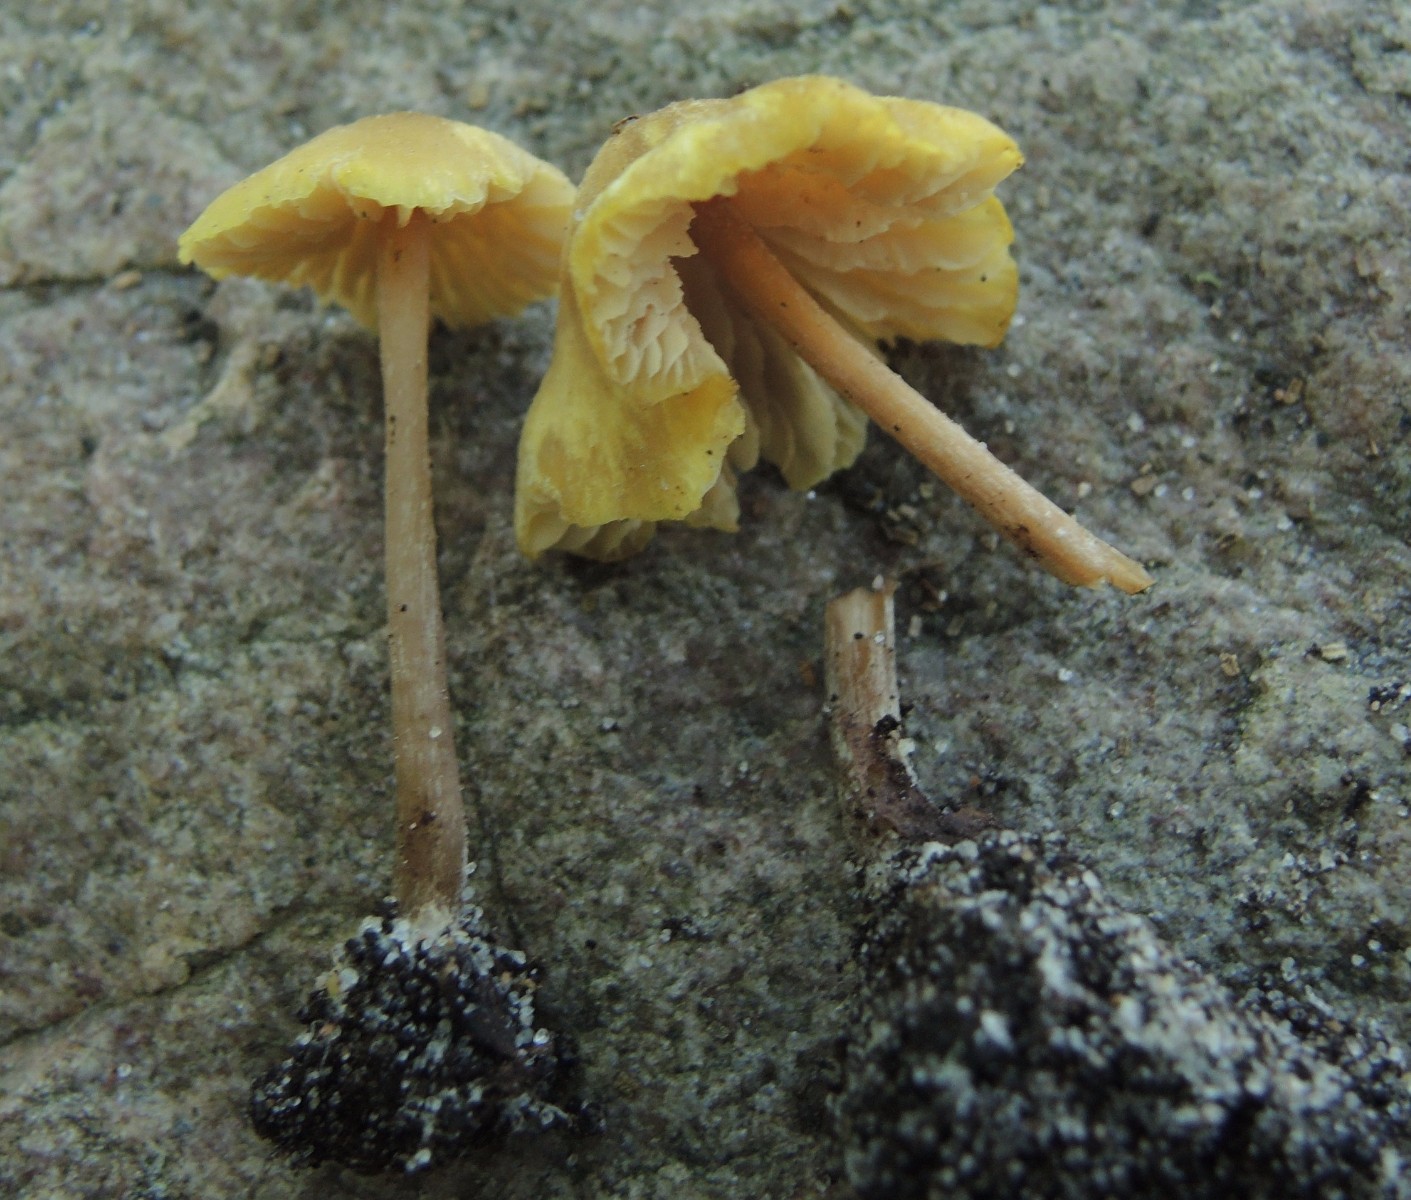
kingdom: Fungi
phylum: Basidiomycota
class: Agaricomycetes
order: Agaricales
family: Entolomataceae
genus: Entoloma
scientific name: Entoloma pleopodium
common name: duftende rødblad
